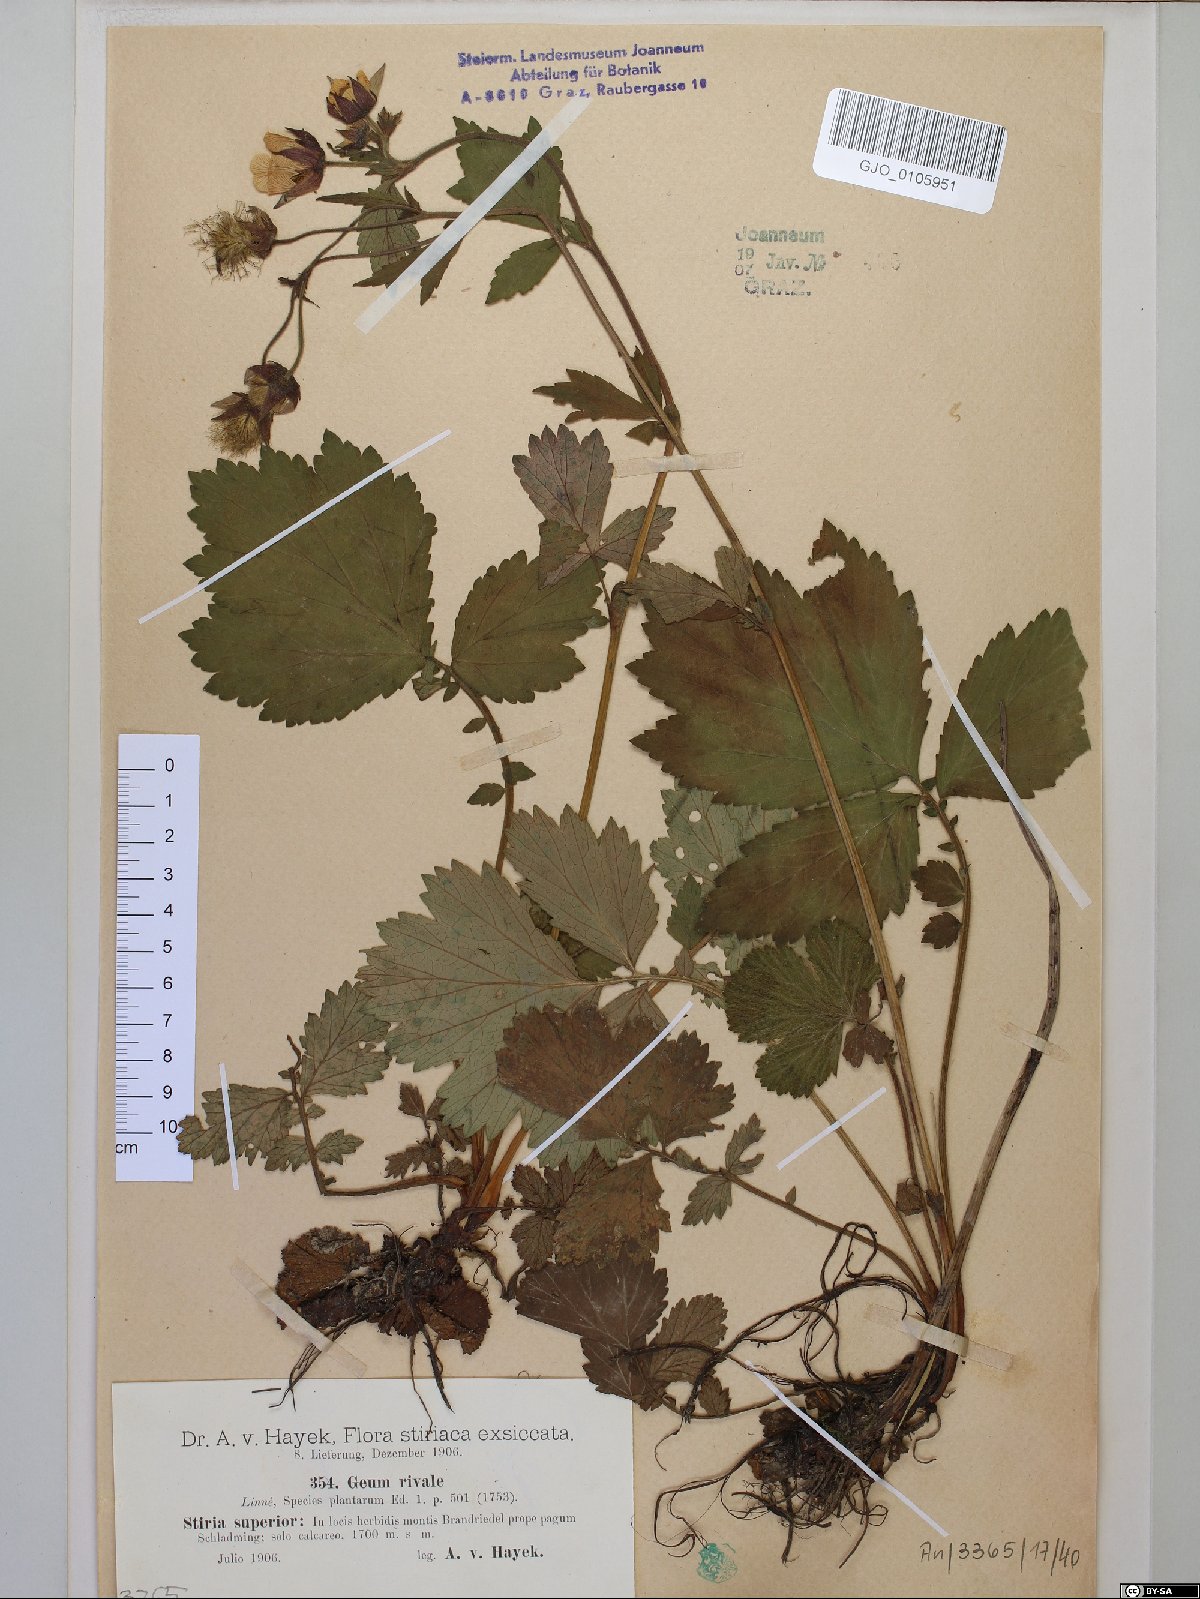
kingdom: Plantae
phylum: Tracheophyta
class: Magnoliopsida
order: Rosales
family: Rosaceae
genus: Geum
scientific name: Geum rivale
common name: Water avens
